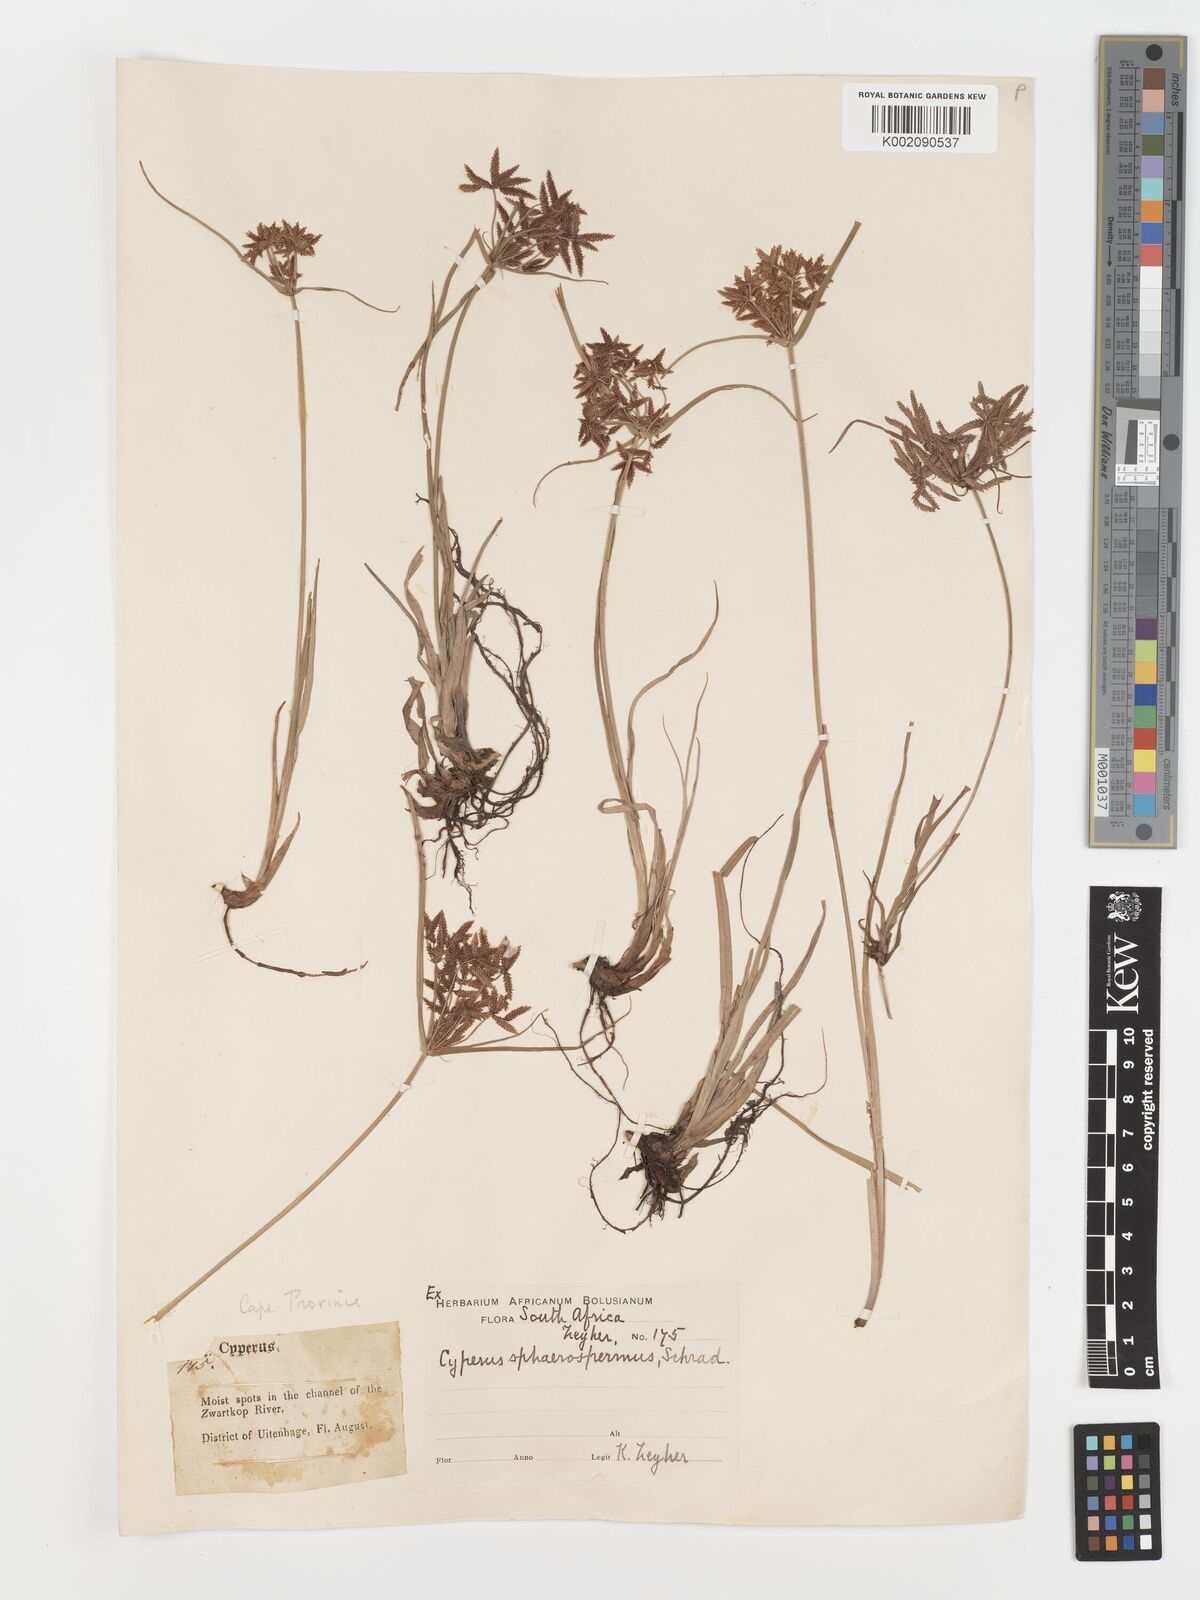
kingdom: Plantae
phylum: Tracheophyta
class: Liliopsida
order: Poales
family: Cyperaceae
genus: Cyperus
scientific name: Cyperus sphaerospermus
